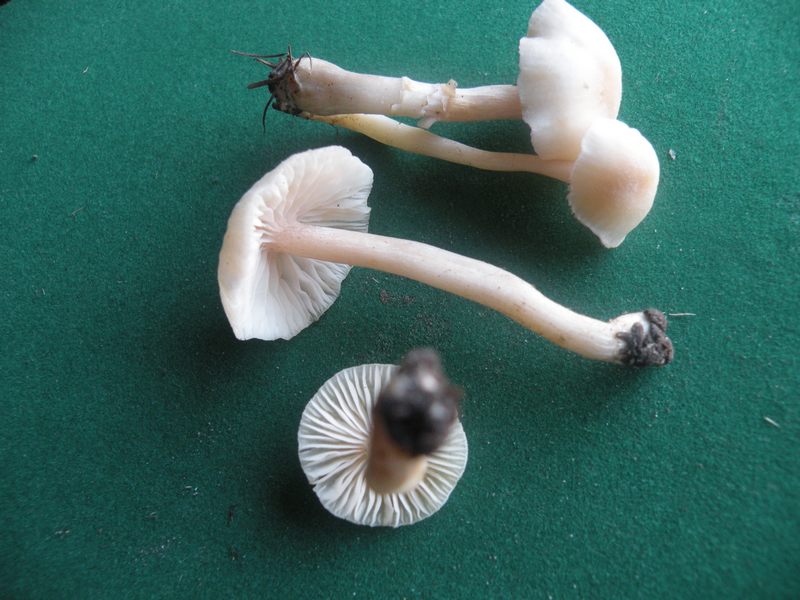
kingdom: Fungi
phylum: Basidiomycota
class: Agaricomycetes
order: Agaricales
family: Hydnangiaceae
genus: Laccaria
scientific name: Laccaria laccata
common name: rød ametysthat
